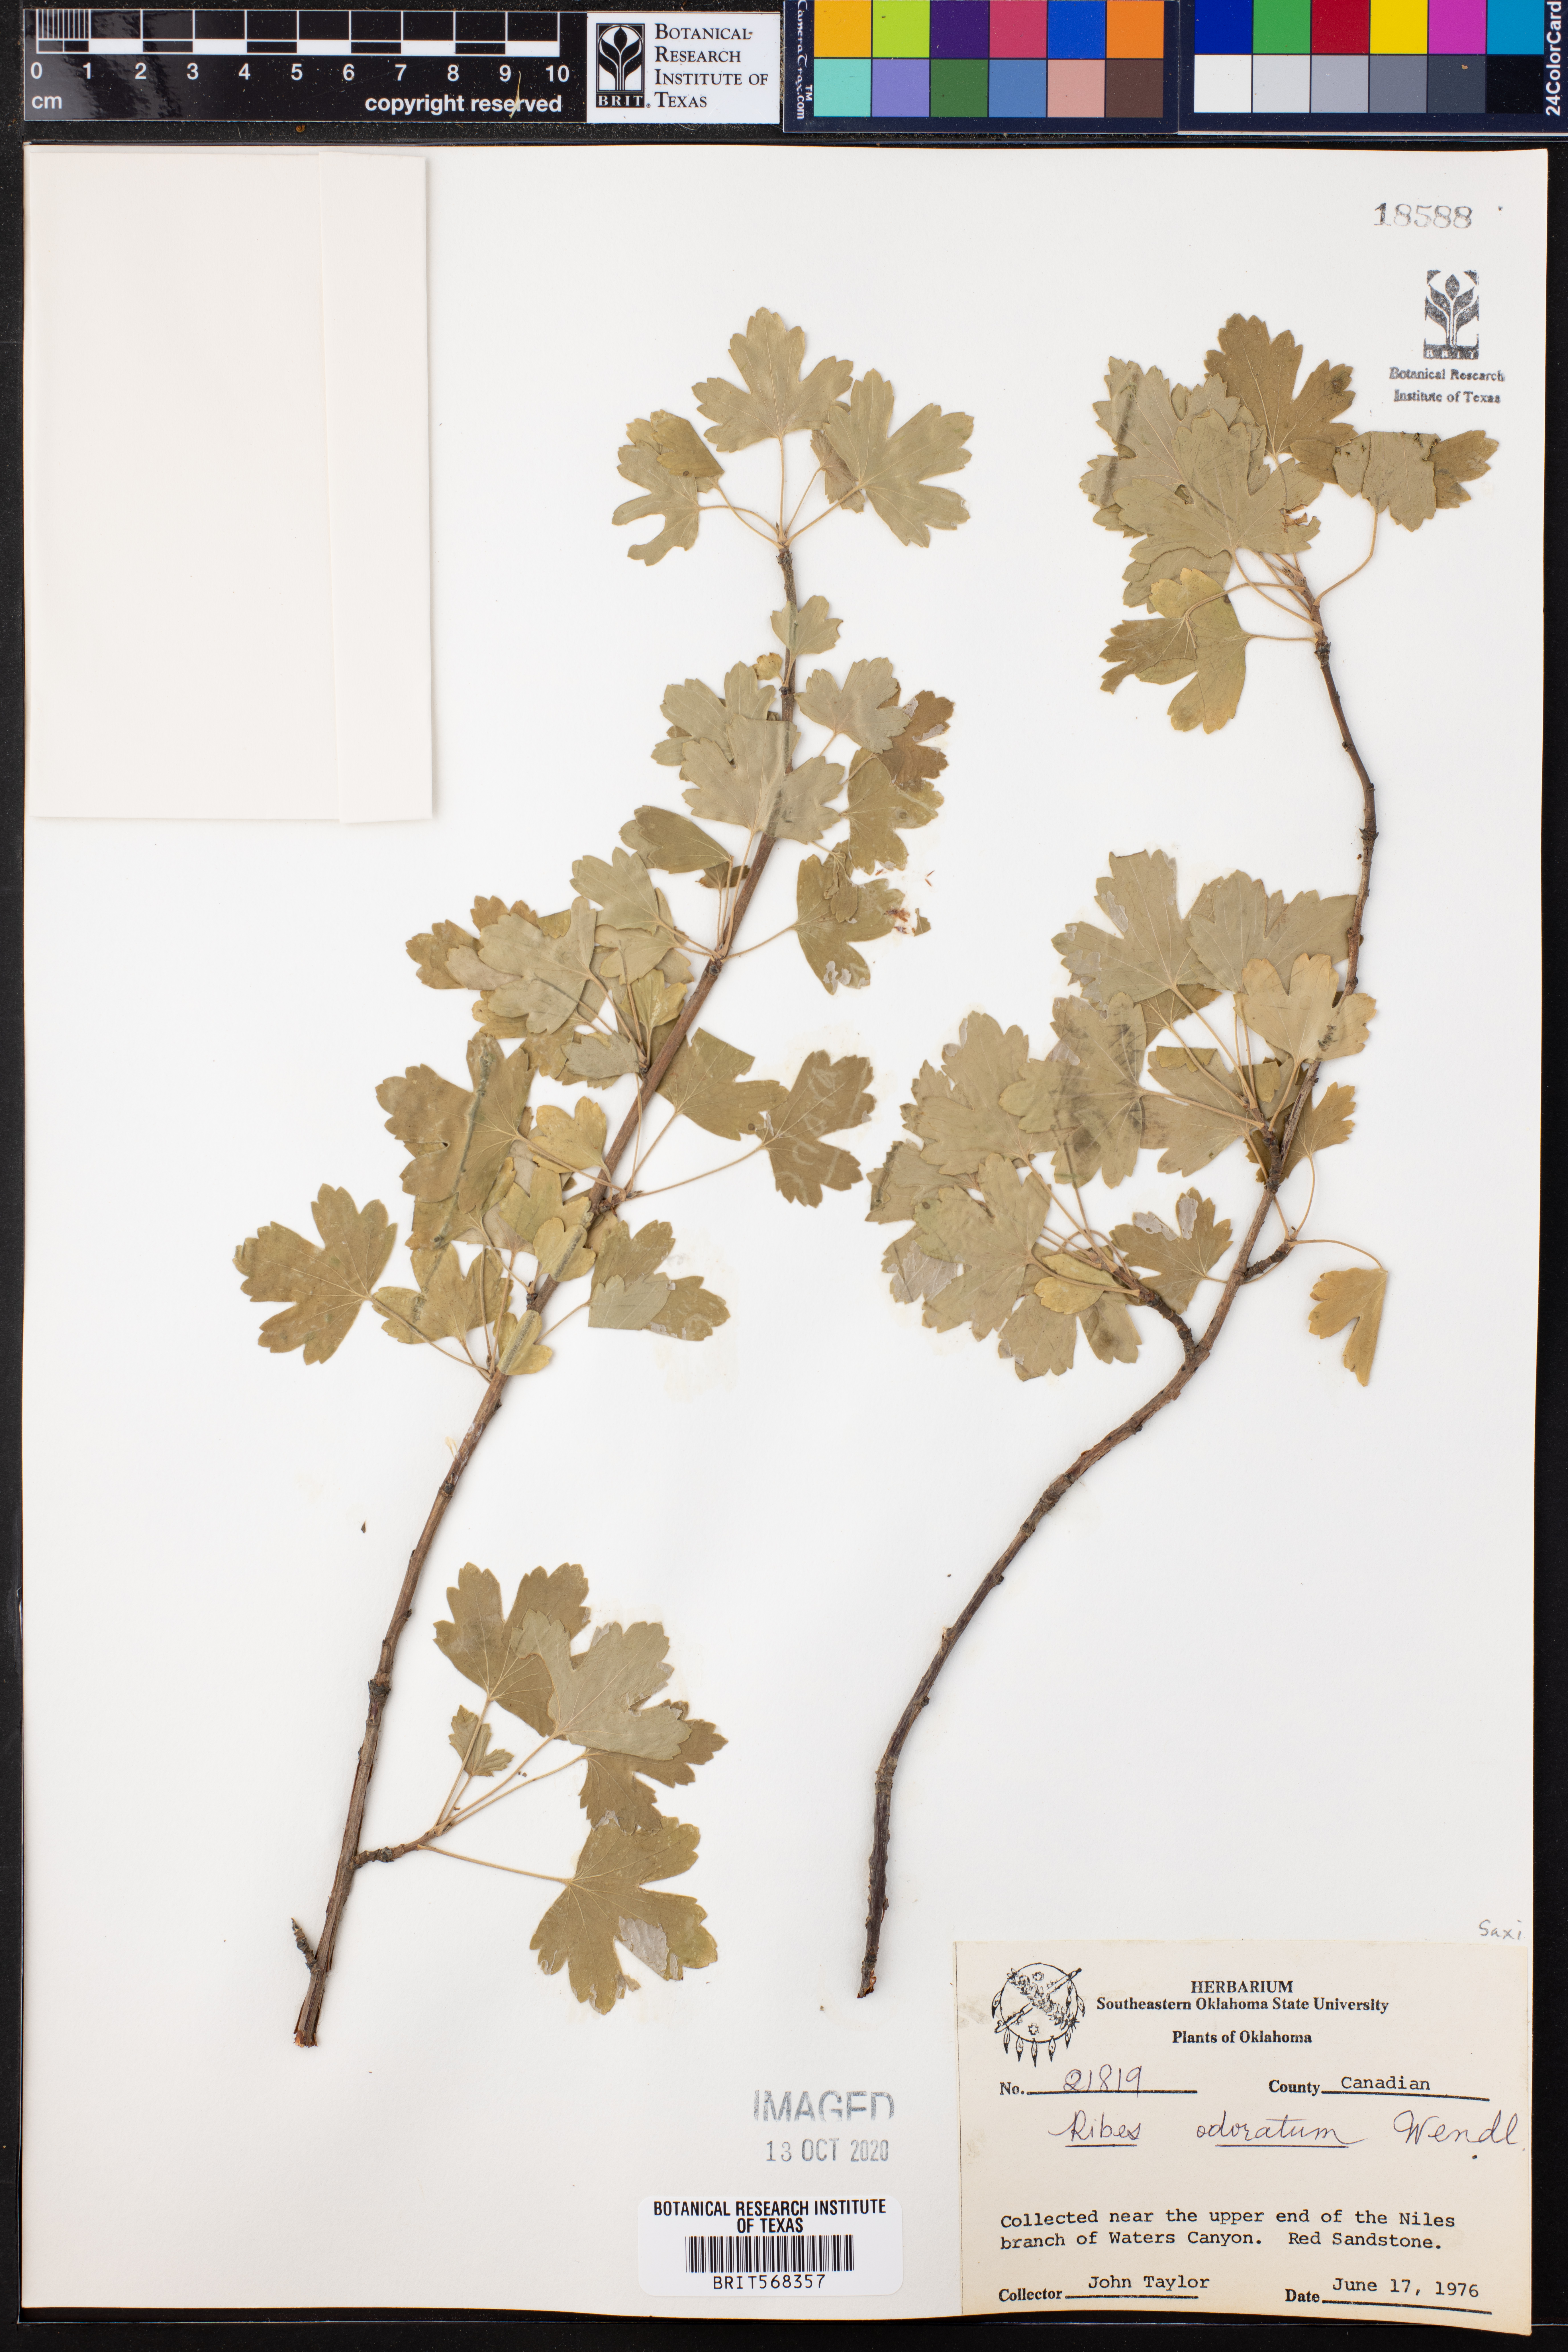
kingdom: Plantae
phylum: Tracheophyta
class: Magnoliopsida
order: Saxifragales
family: Grossulariaceae
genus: Ribes
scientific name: Ribes aureum
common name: Golden currant
